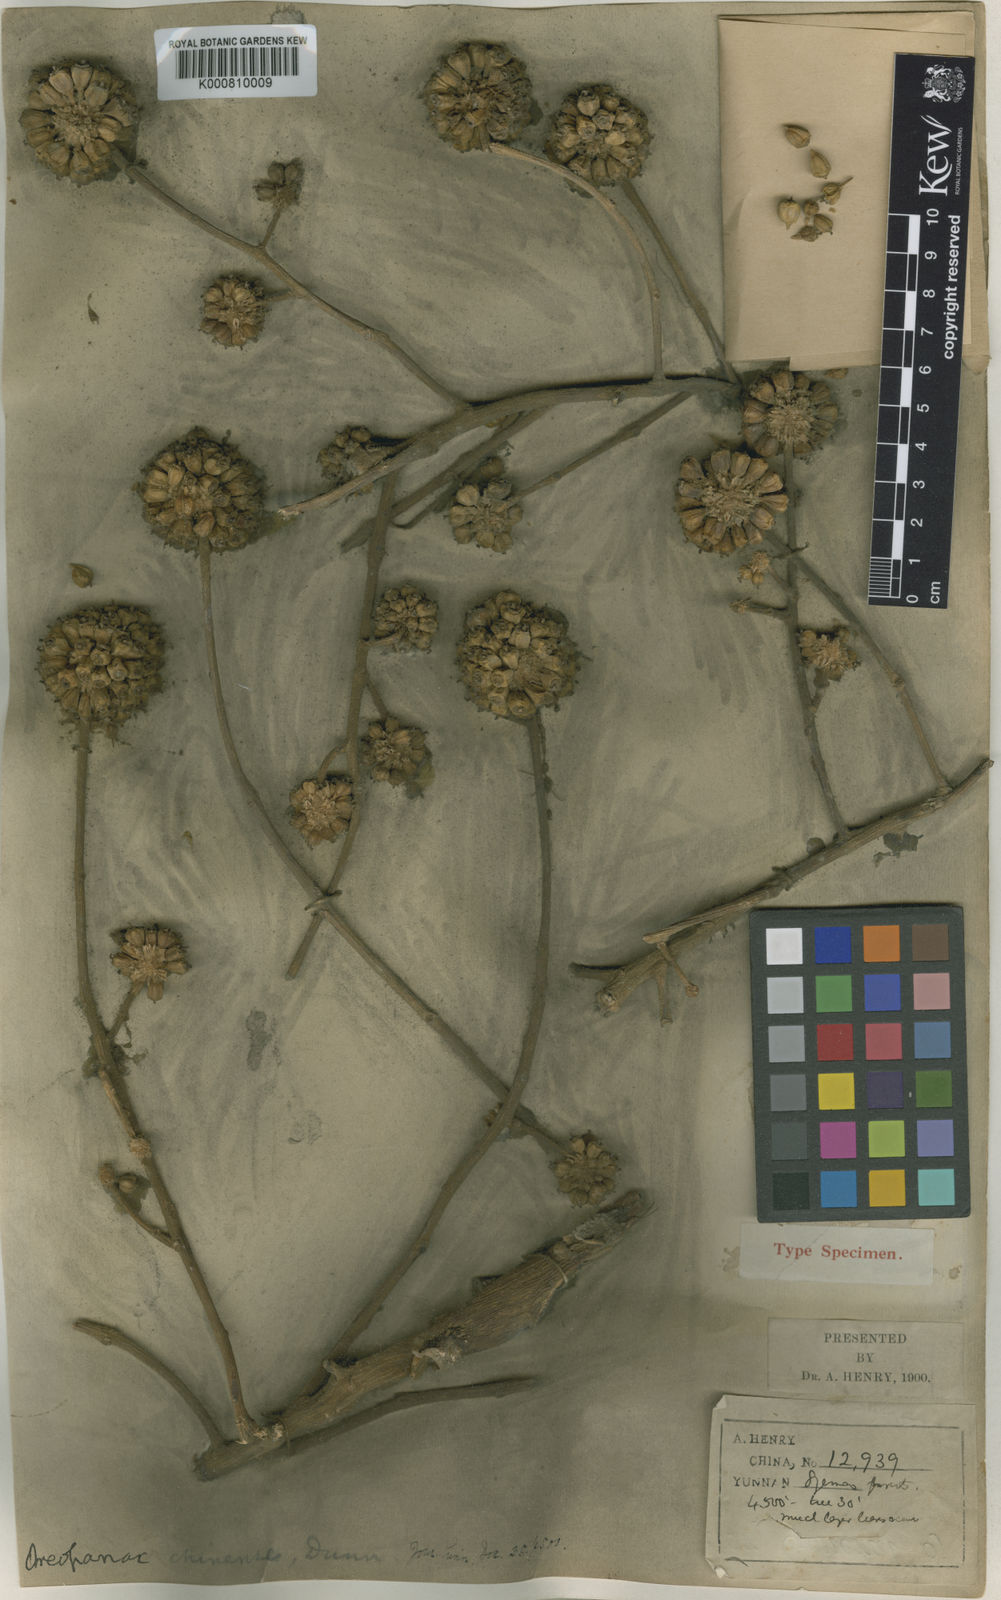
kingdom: Plantae
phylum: Tracheophyta
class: Magnoliopsida
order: Apiales
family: Araliaceae
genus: Heptapleurum
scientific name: Heptapleurum chinense
